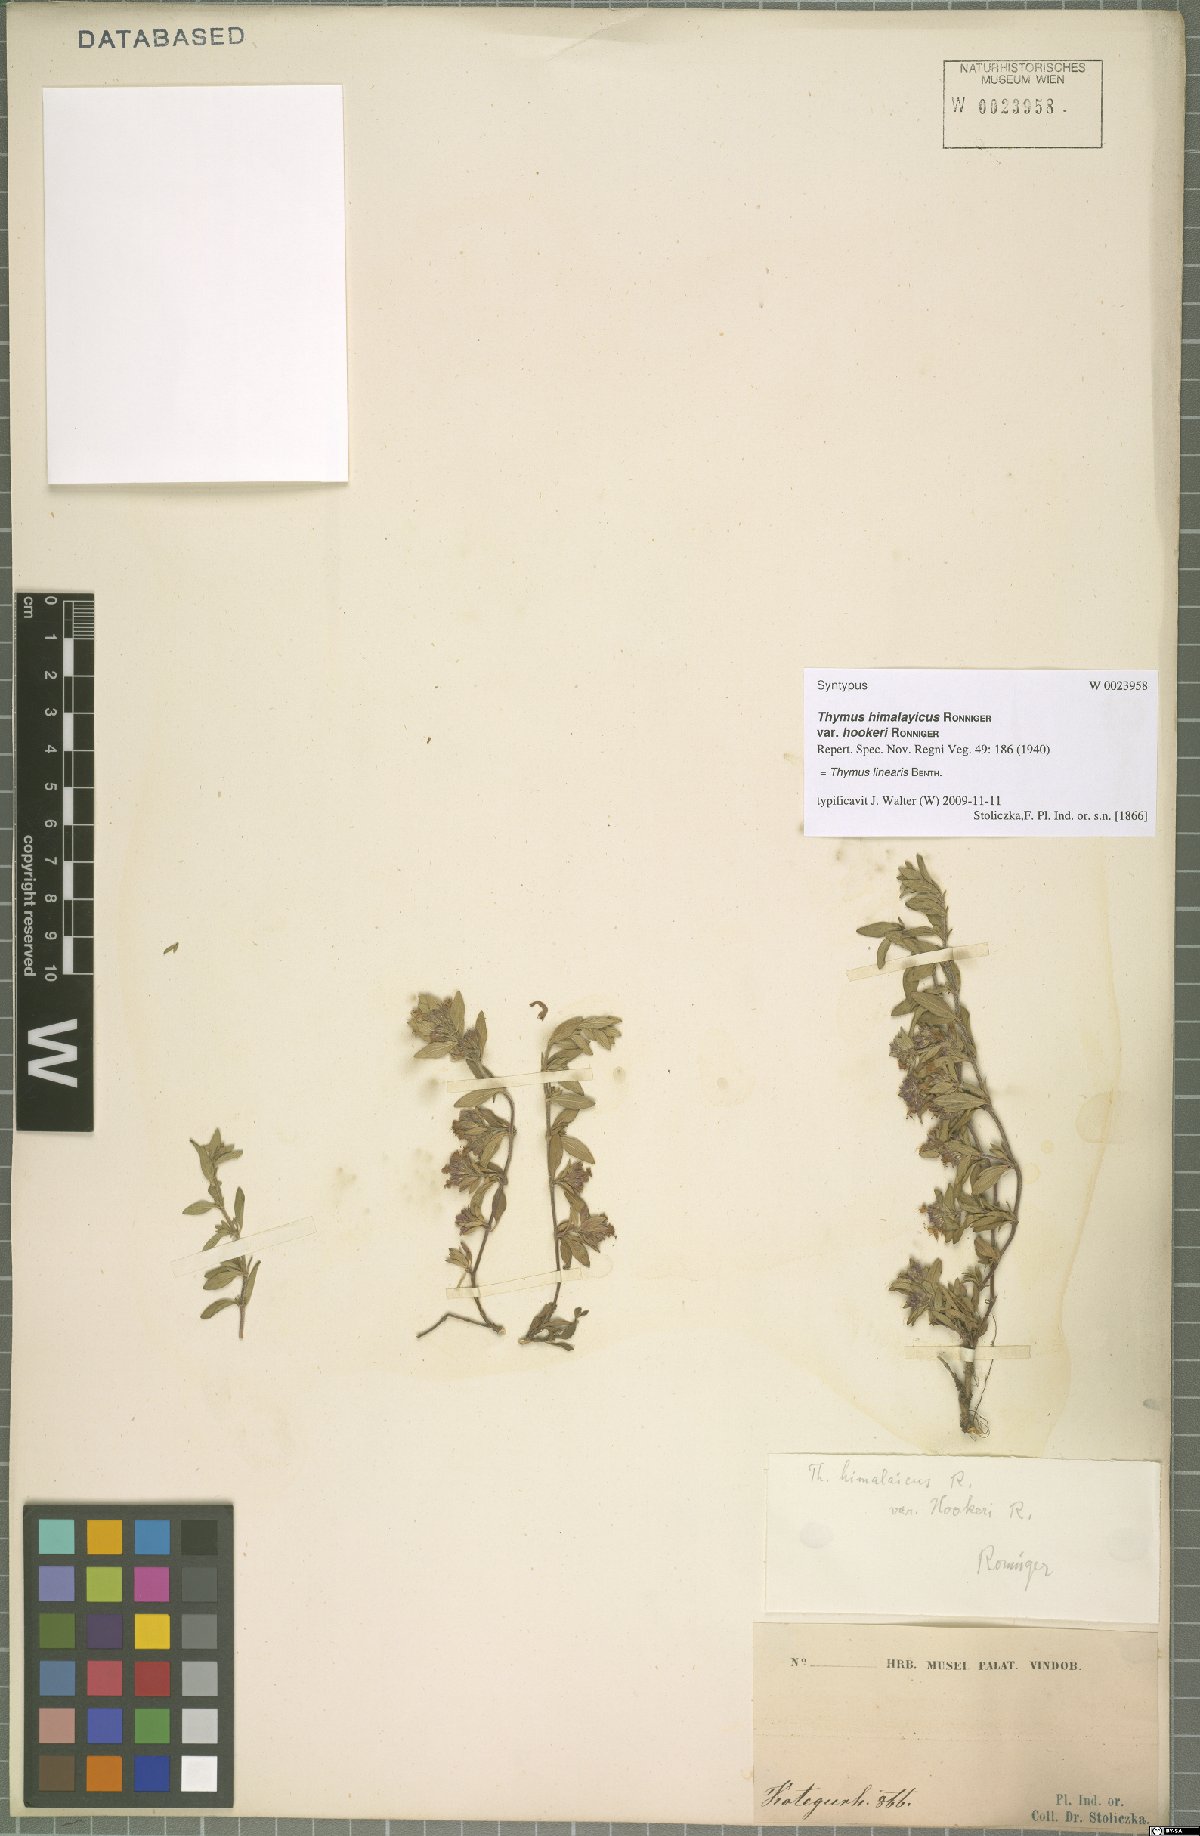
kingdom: Plantae
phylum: Tracheophyta
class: Magnoliopsida
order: Lamiales
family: Lamiaceae
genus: Thymus
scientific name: Thymus linearis
